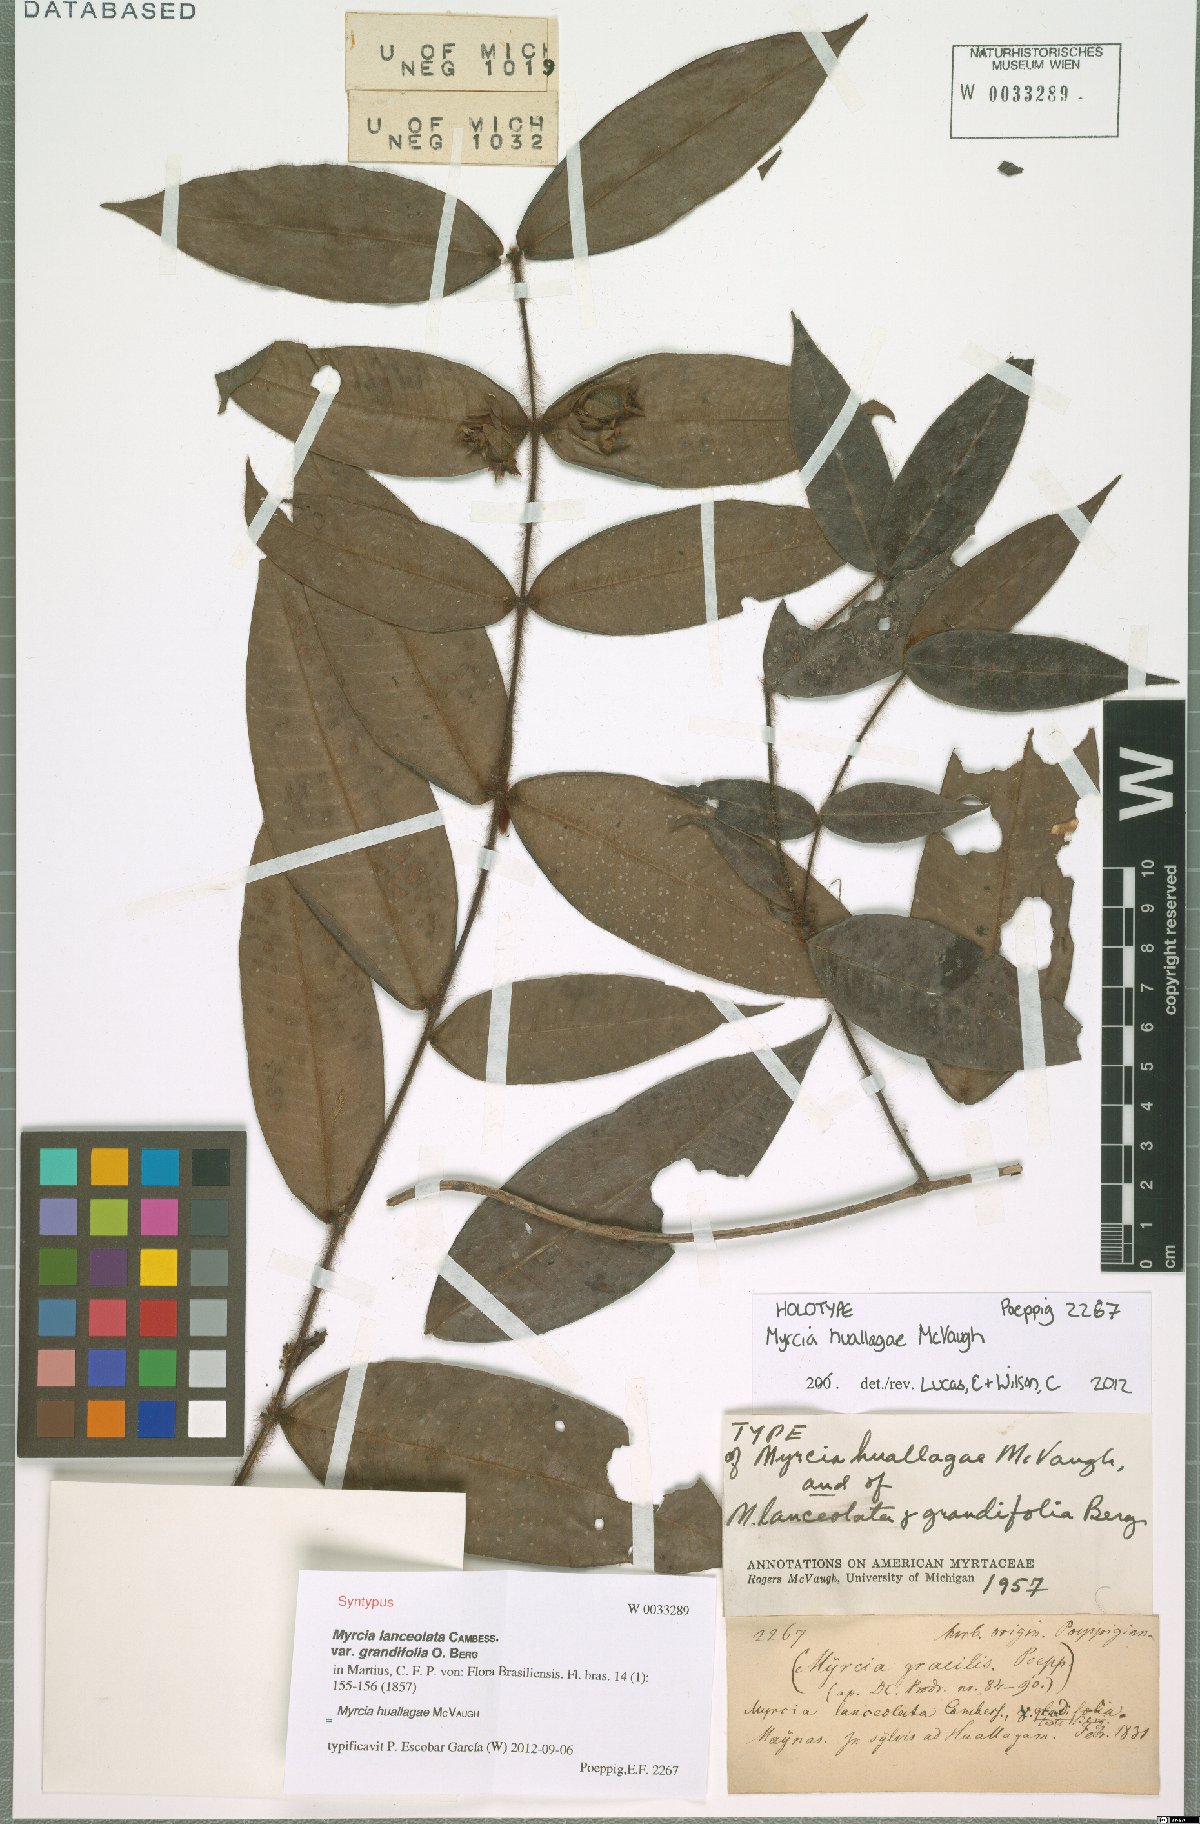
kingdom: Plantae
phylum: Tracheophyta
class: Magnoliopsida
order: Myrtales
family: Myrtaceae
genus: Myrcia
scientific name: Myrcia huallagae
